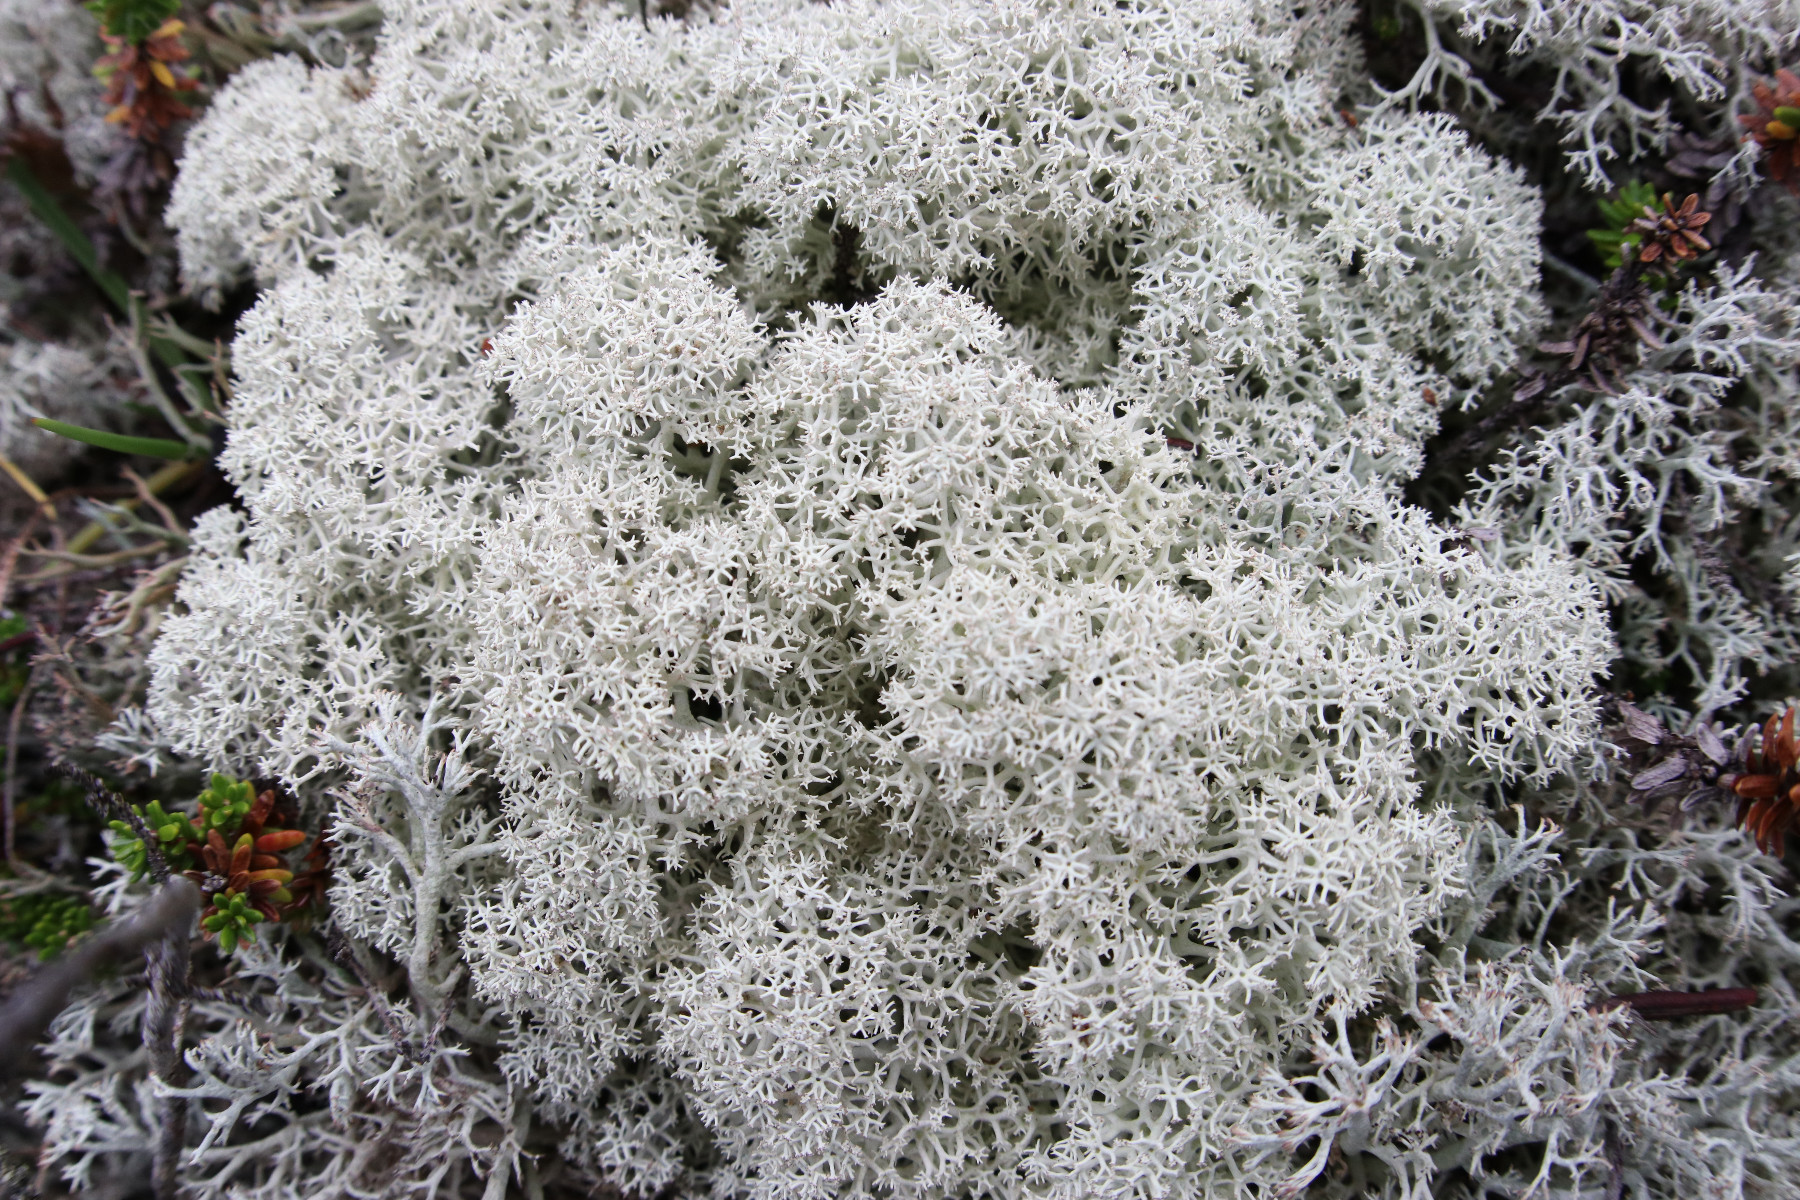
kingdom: Fungi
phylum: Ascomycota
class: Lecanoromycetes
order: Lecanorales
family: Cladoniaceae
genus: Cladonia
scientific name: Cladonia stellaris
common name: stjerne-rensdyrlav
